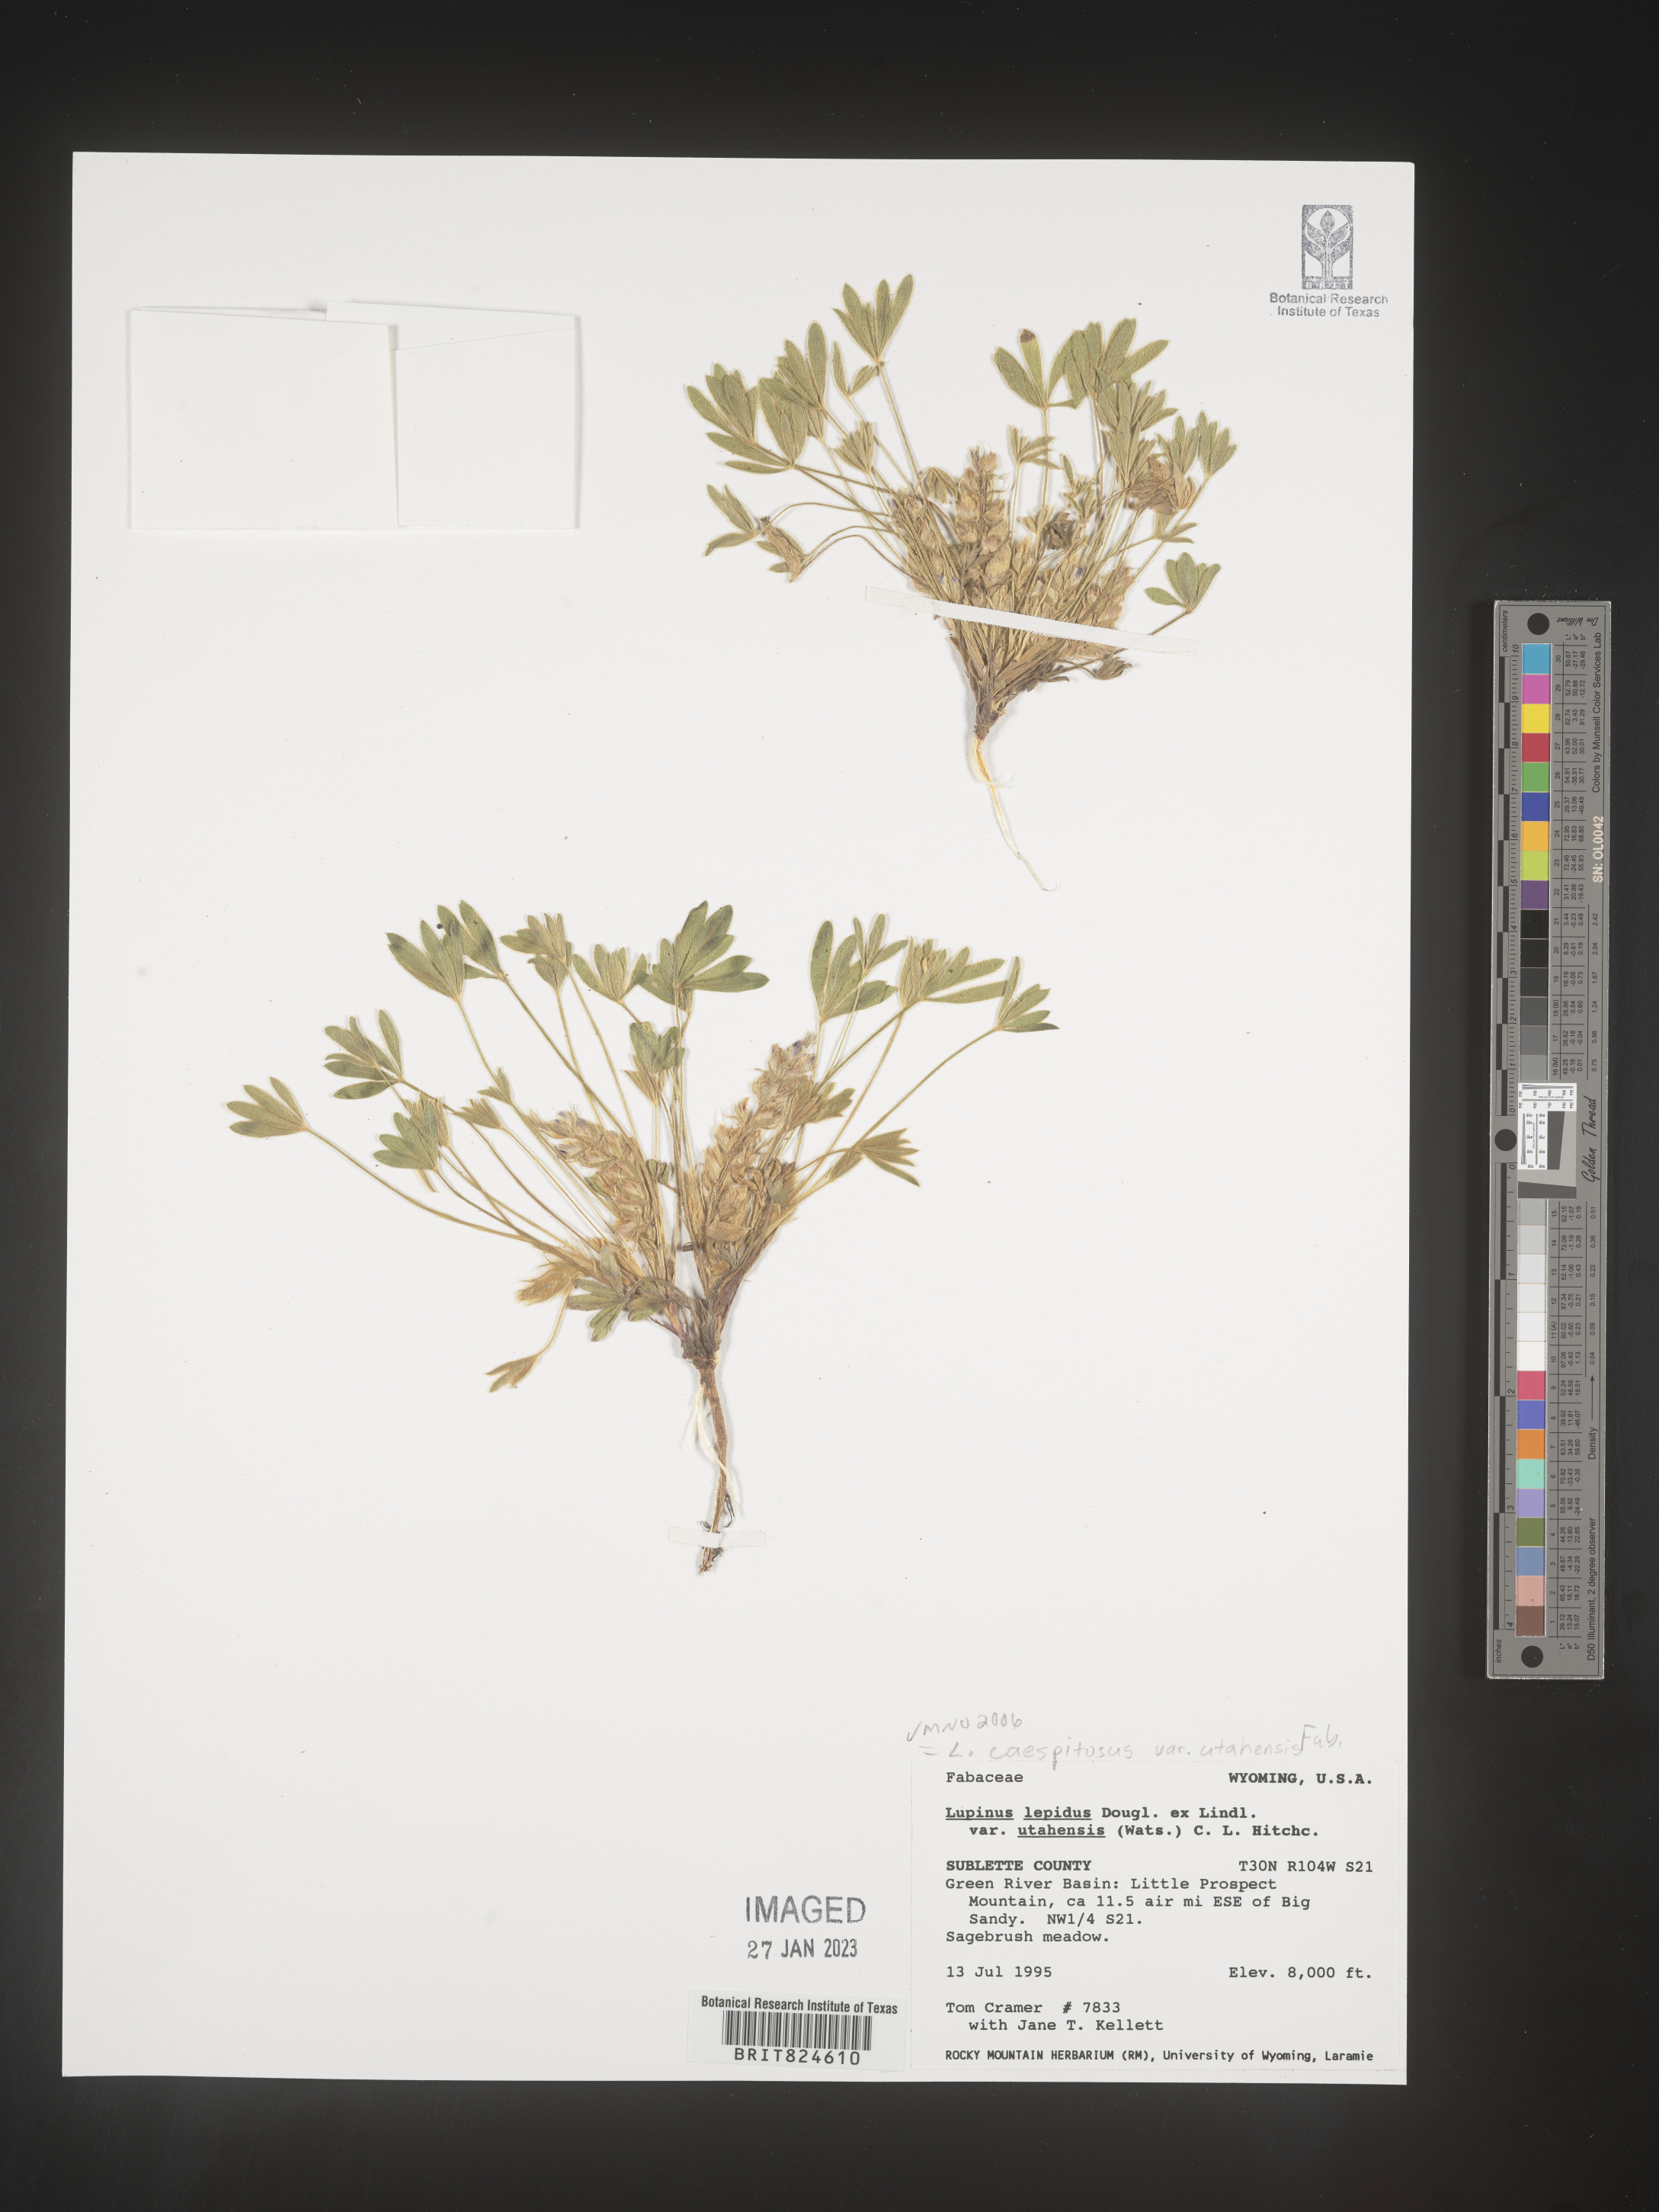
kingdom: Plantae
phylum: Tracheophyta
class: Magnoliopsida
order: Fabales
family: Fabaceae
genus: Lupinus
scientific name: Lupinus caespitosus
